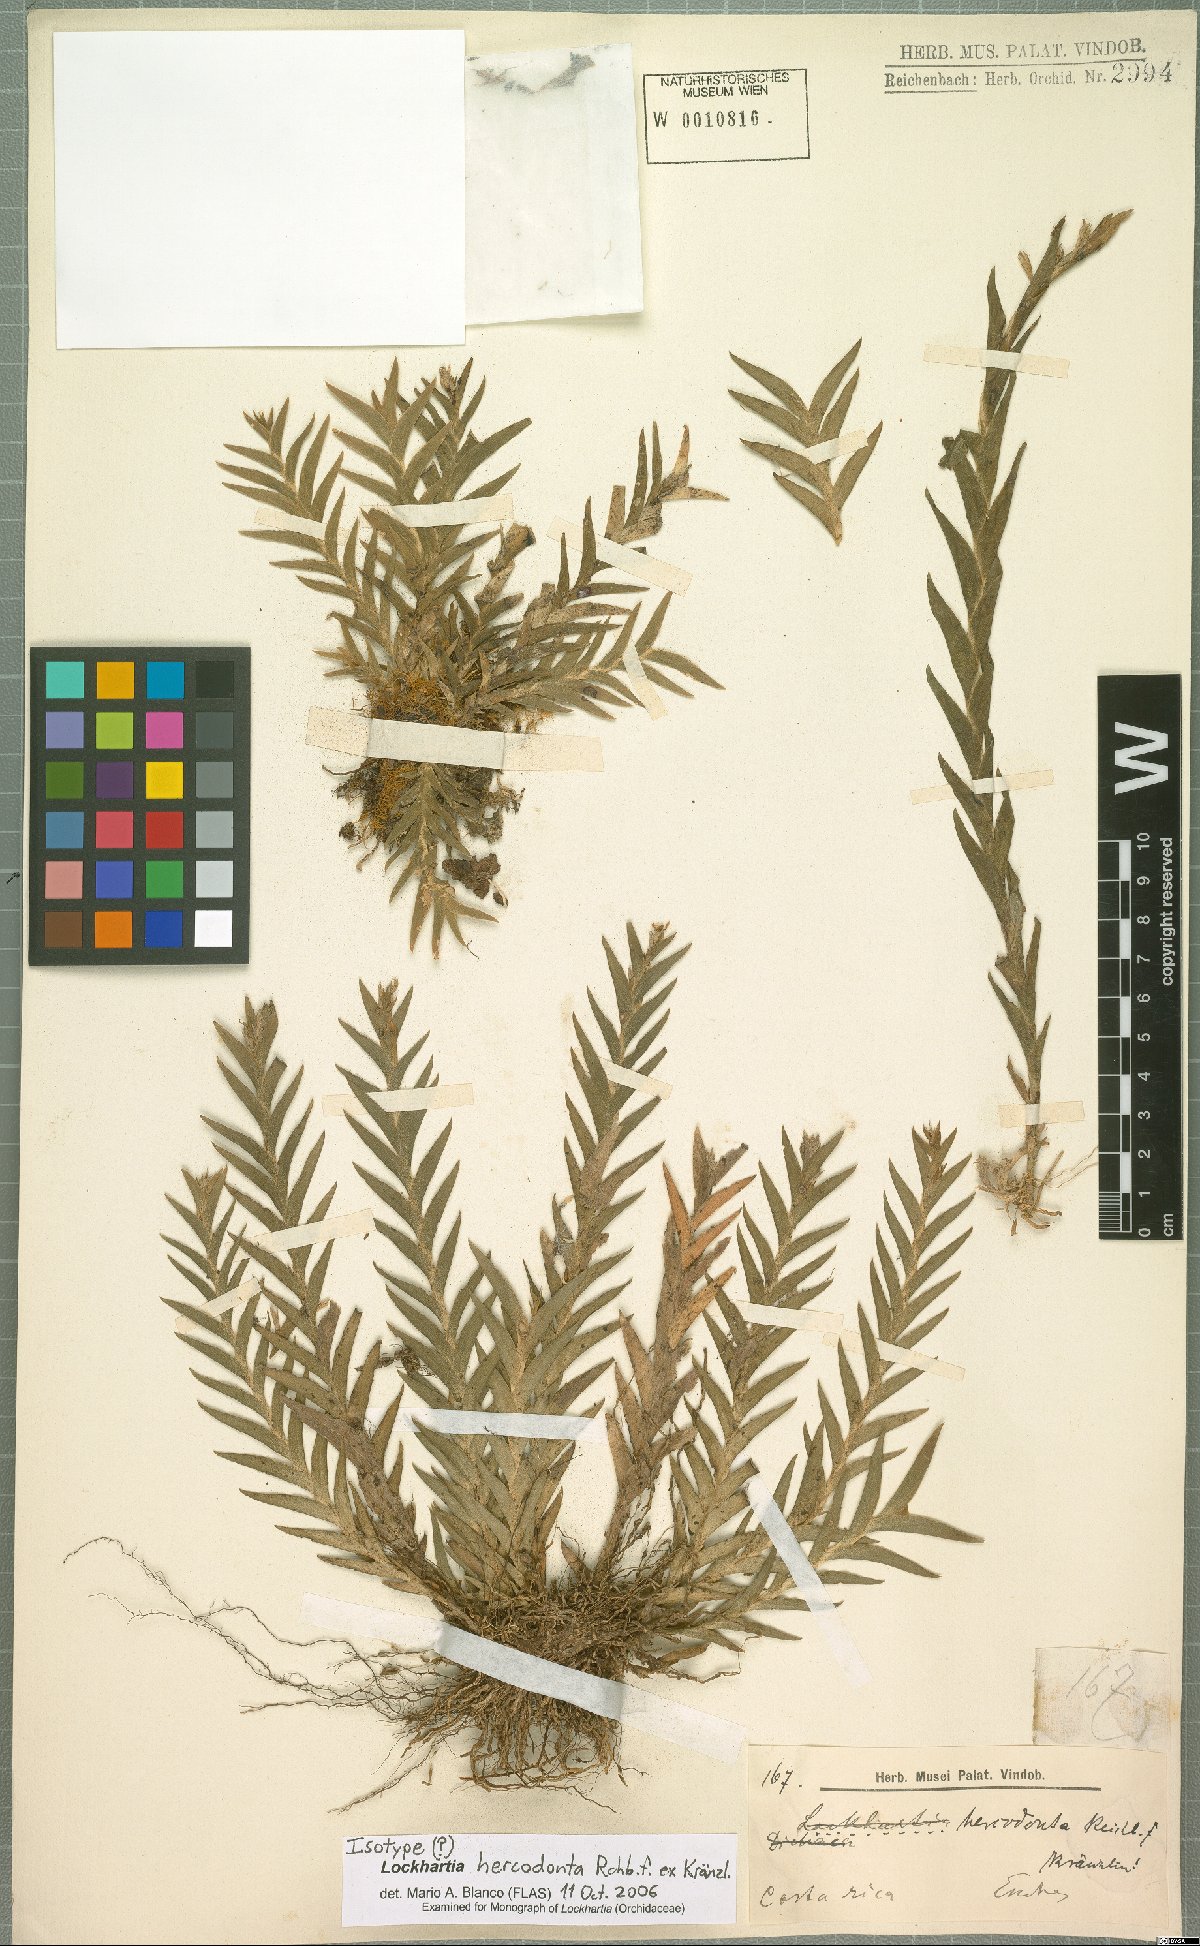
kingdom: Plantae
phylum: Tracheophyta
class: Liliopsida
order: Asparagales
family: Orchidaceae
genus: Lockhartia
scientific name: Lockhartia hercodonta
